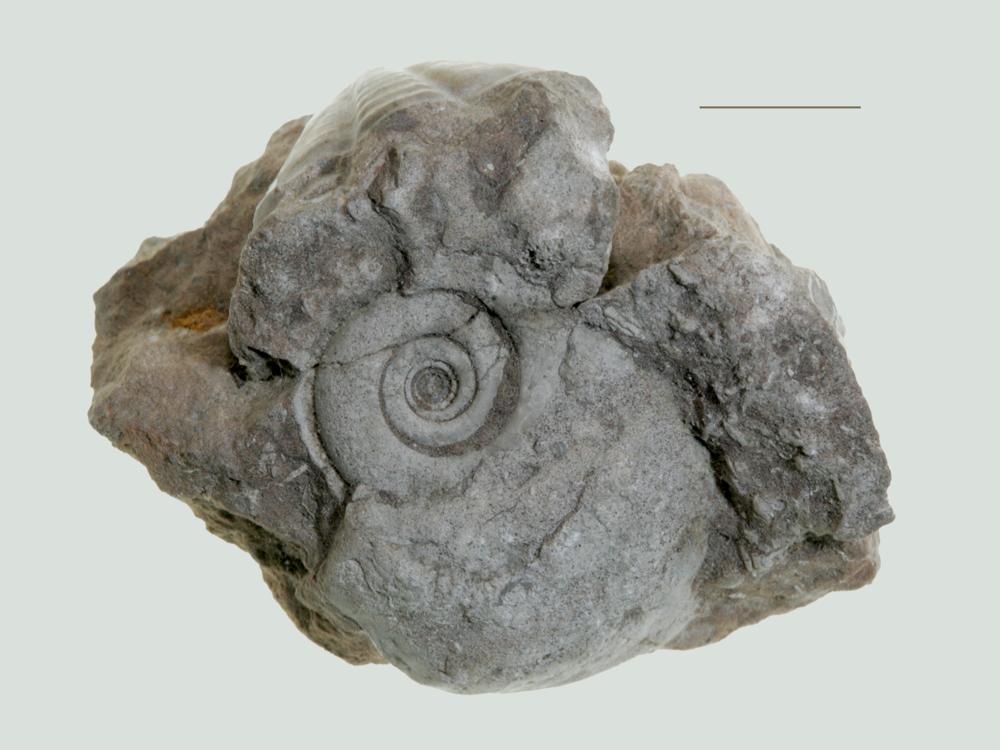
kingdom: Animalia
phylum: Mollusca
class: Gastropoda
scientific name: Gastropoda
